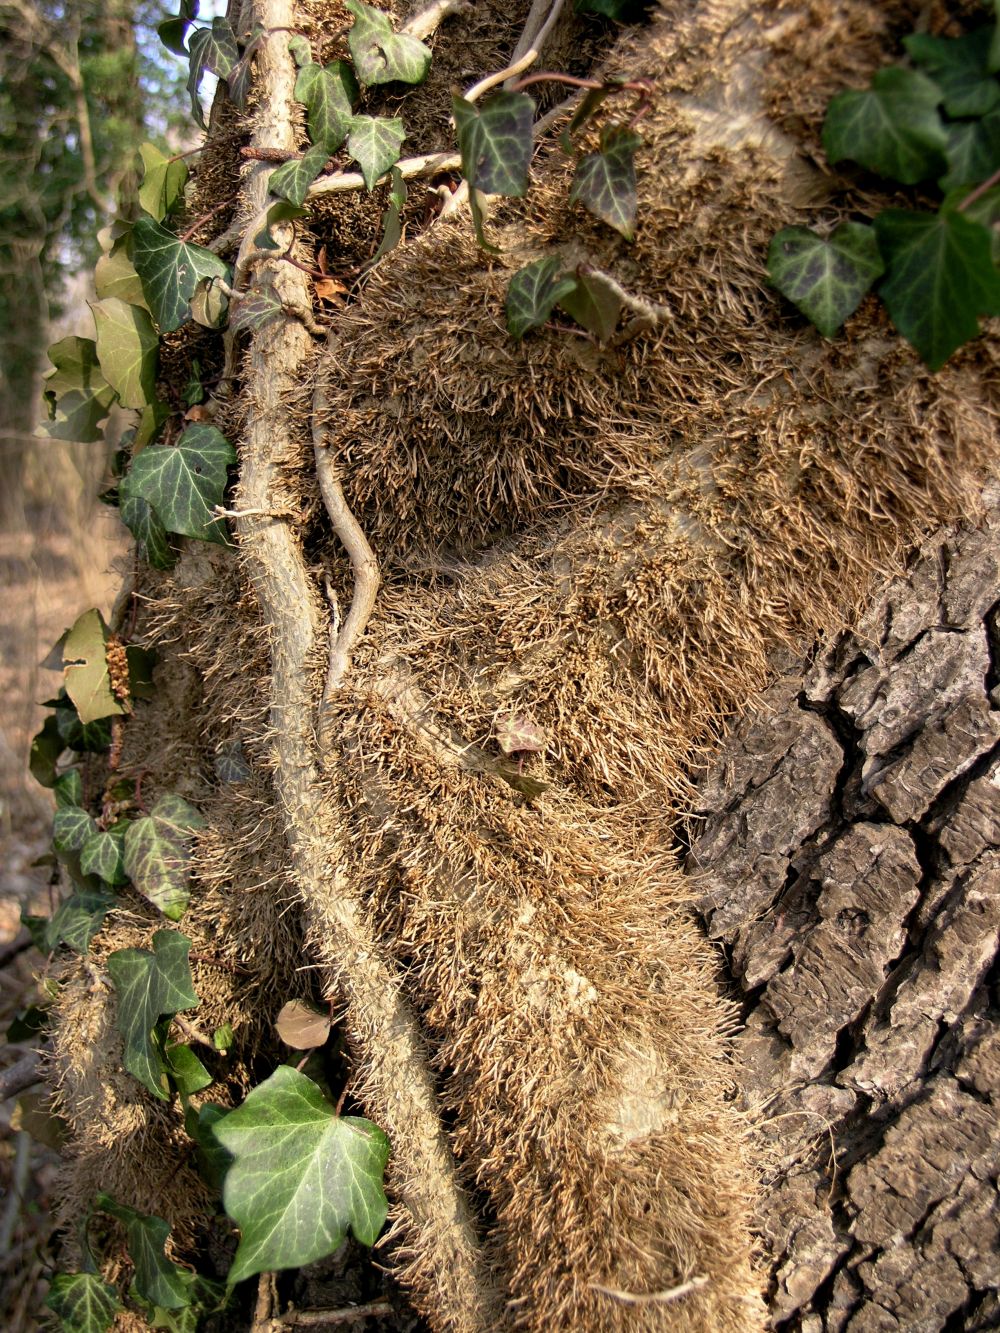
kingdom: Plantae
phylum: Tracheophyta
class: Magnoliopsida
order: Apiales
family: Araliaceae
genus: Hedera
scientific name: Hedera helix
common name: Ivy
